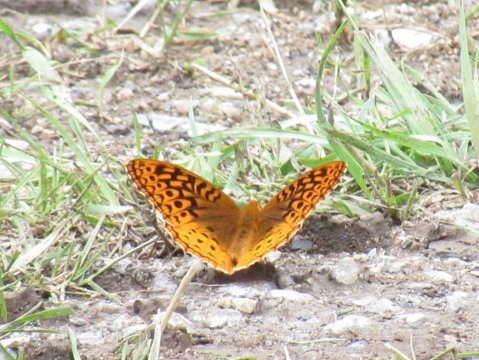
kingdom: Animalia
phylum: Arthropoda
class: Insecta
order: Lepidoptera
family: Nymphalidae
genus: Speyeria
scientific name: Speyeria cybele
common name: Great Spangled Fritillary
